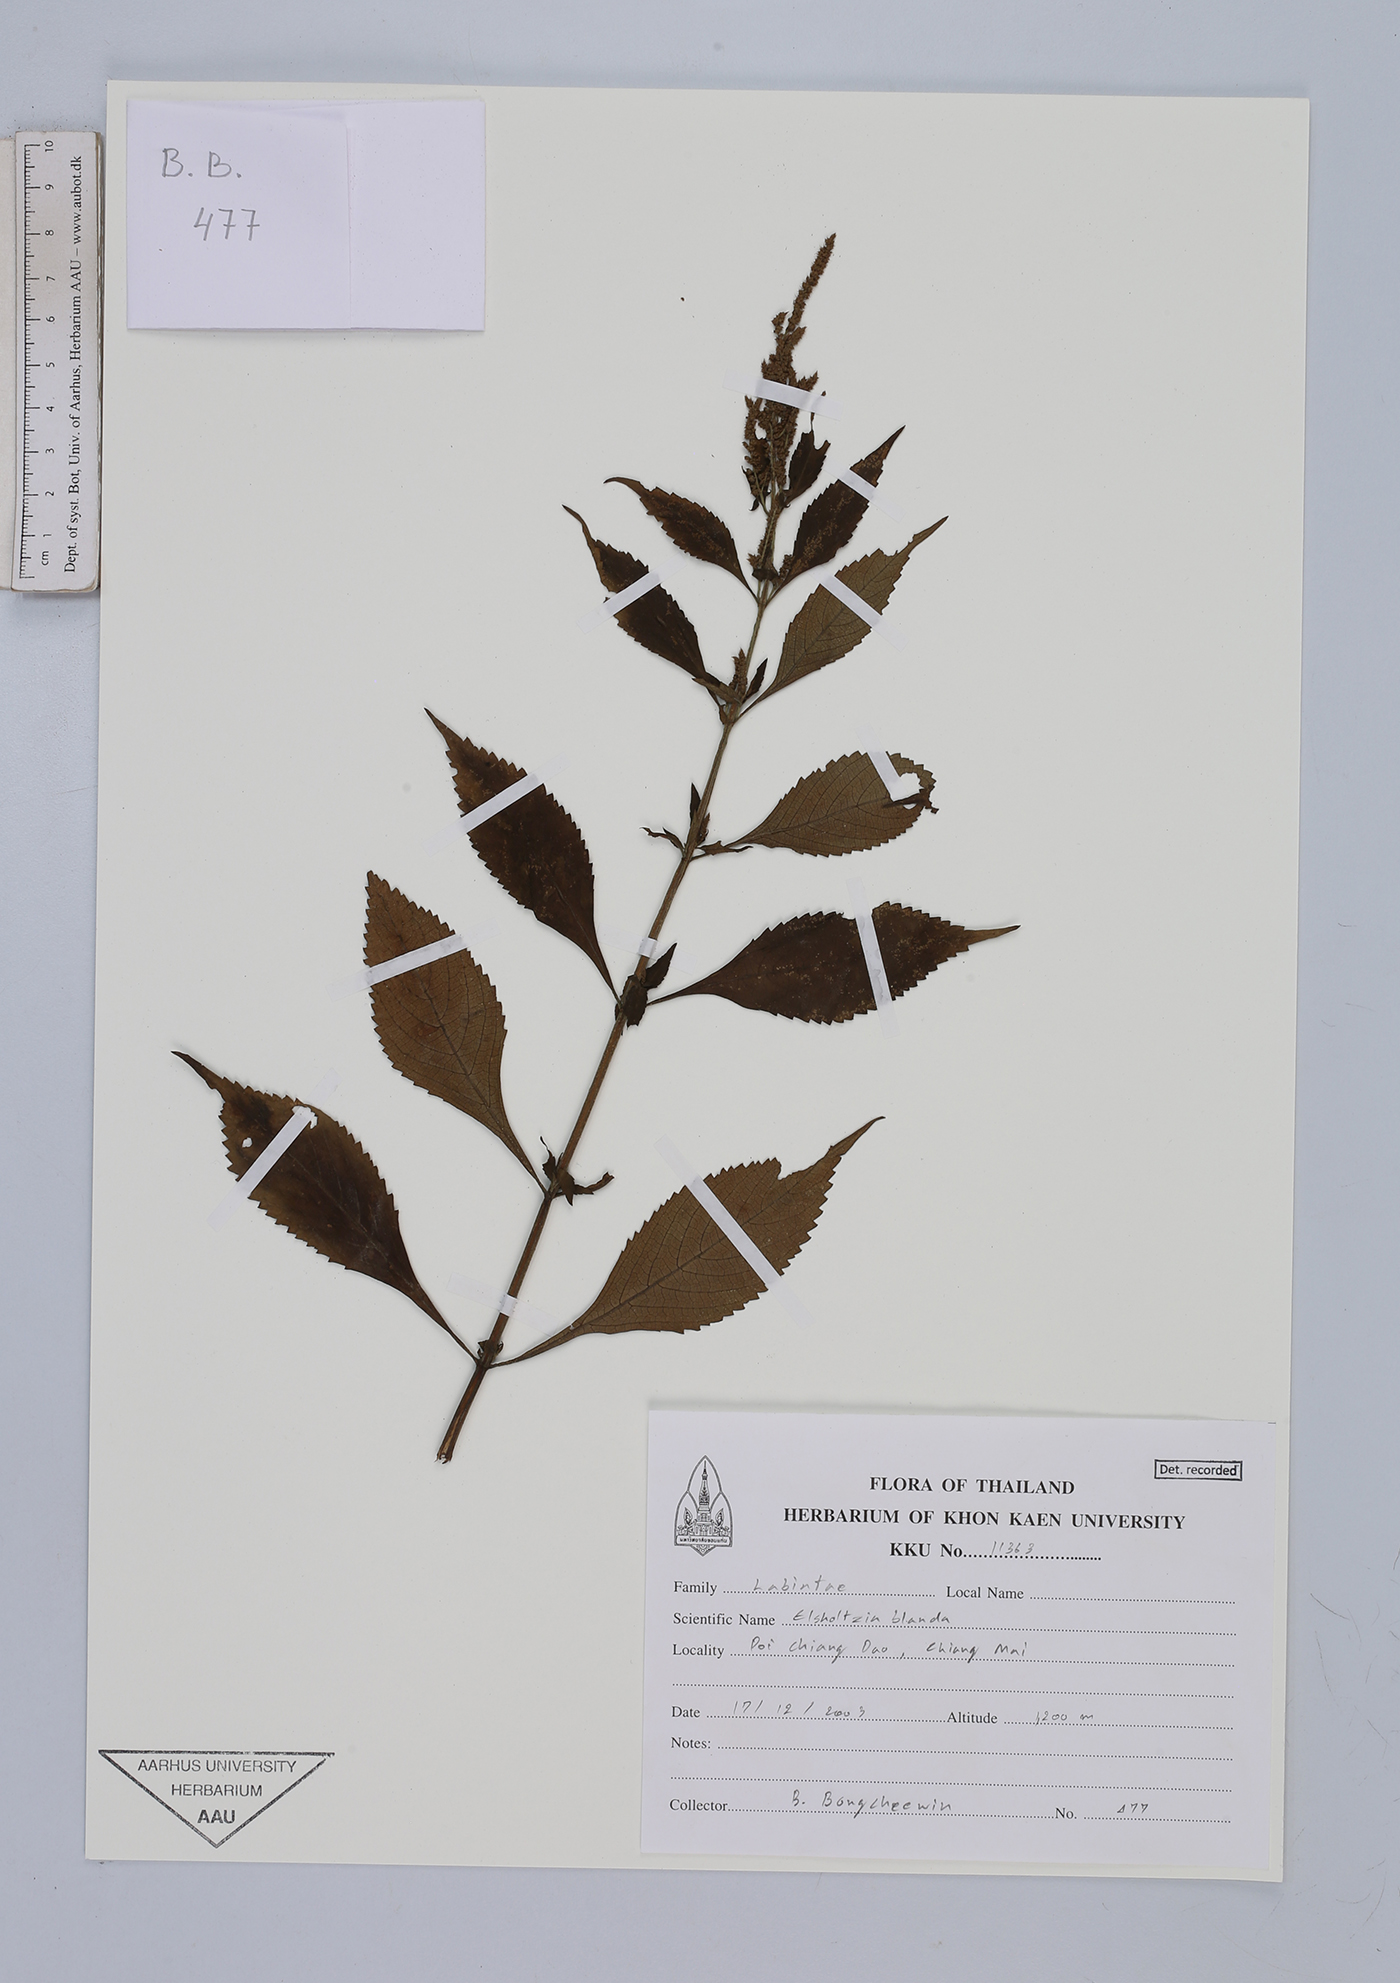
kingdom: Plantae
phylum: Tracheophyta
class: Magnoliopsida
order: Lamiales
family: Lamiaceae
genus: Elsholtzia
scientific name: Elsholtzia blanda
